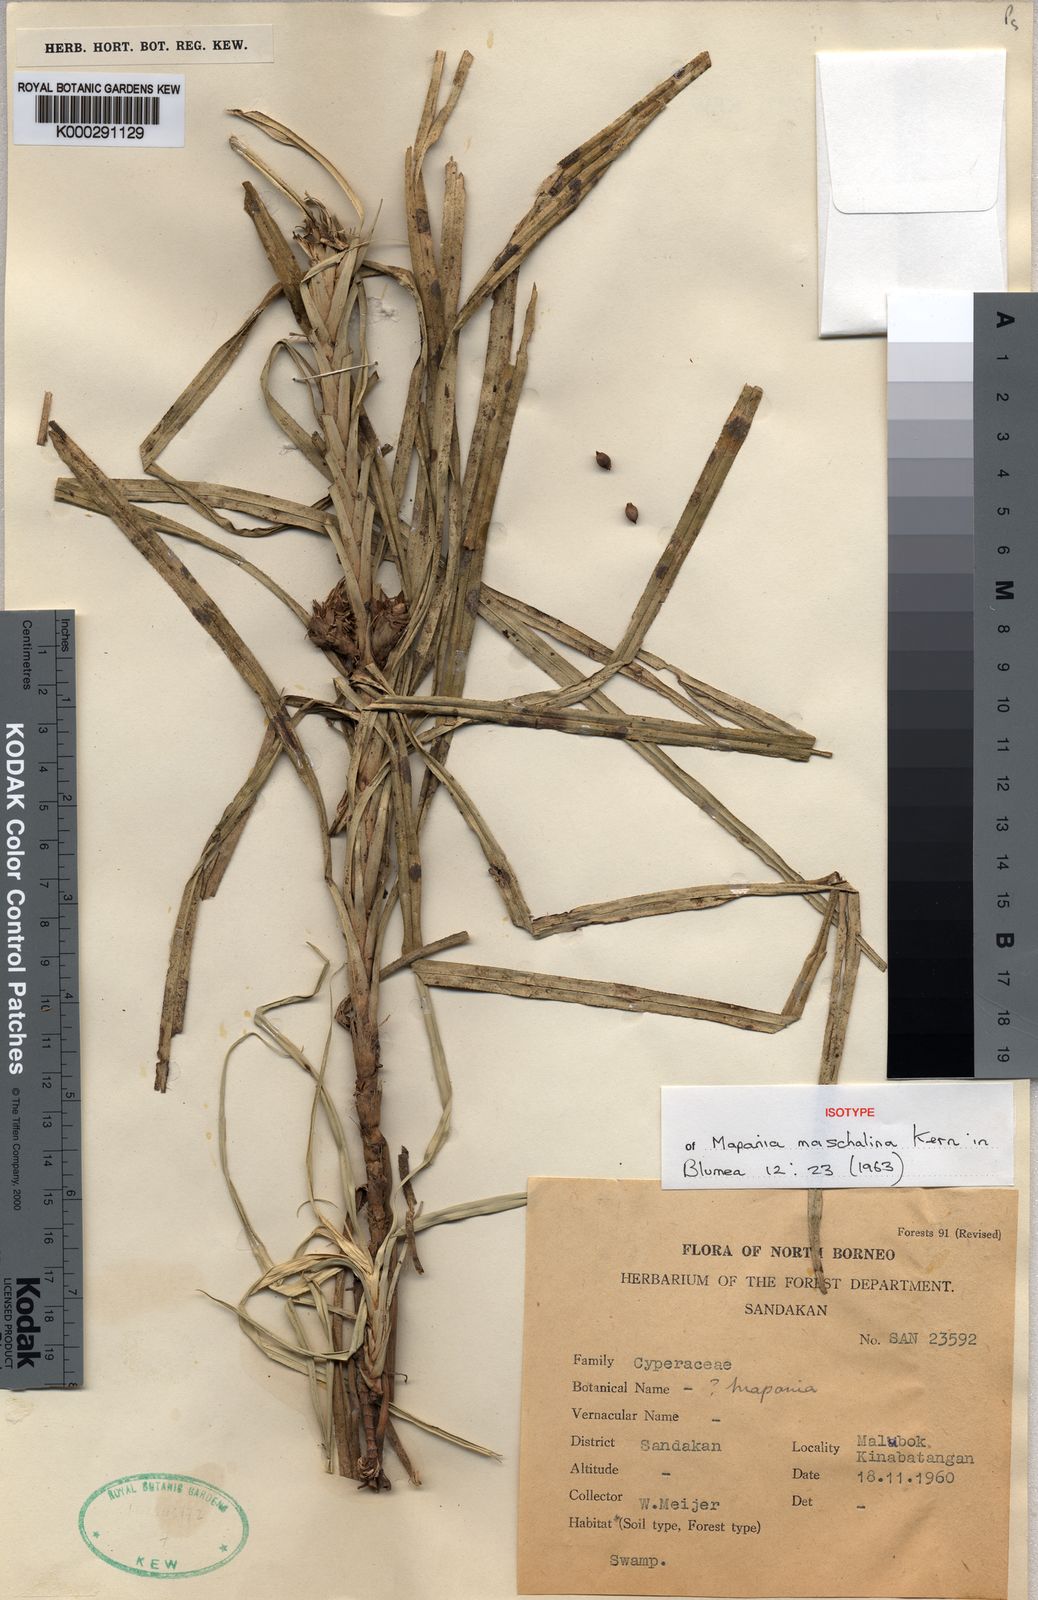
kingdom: Plantae
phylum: Tracheophyta
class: Liliopsida
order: Poales
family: Cyperaceae
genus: Mapania
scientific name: Mapania maschalina
